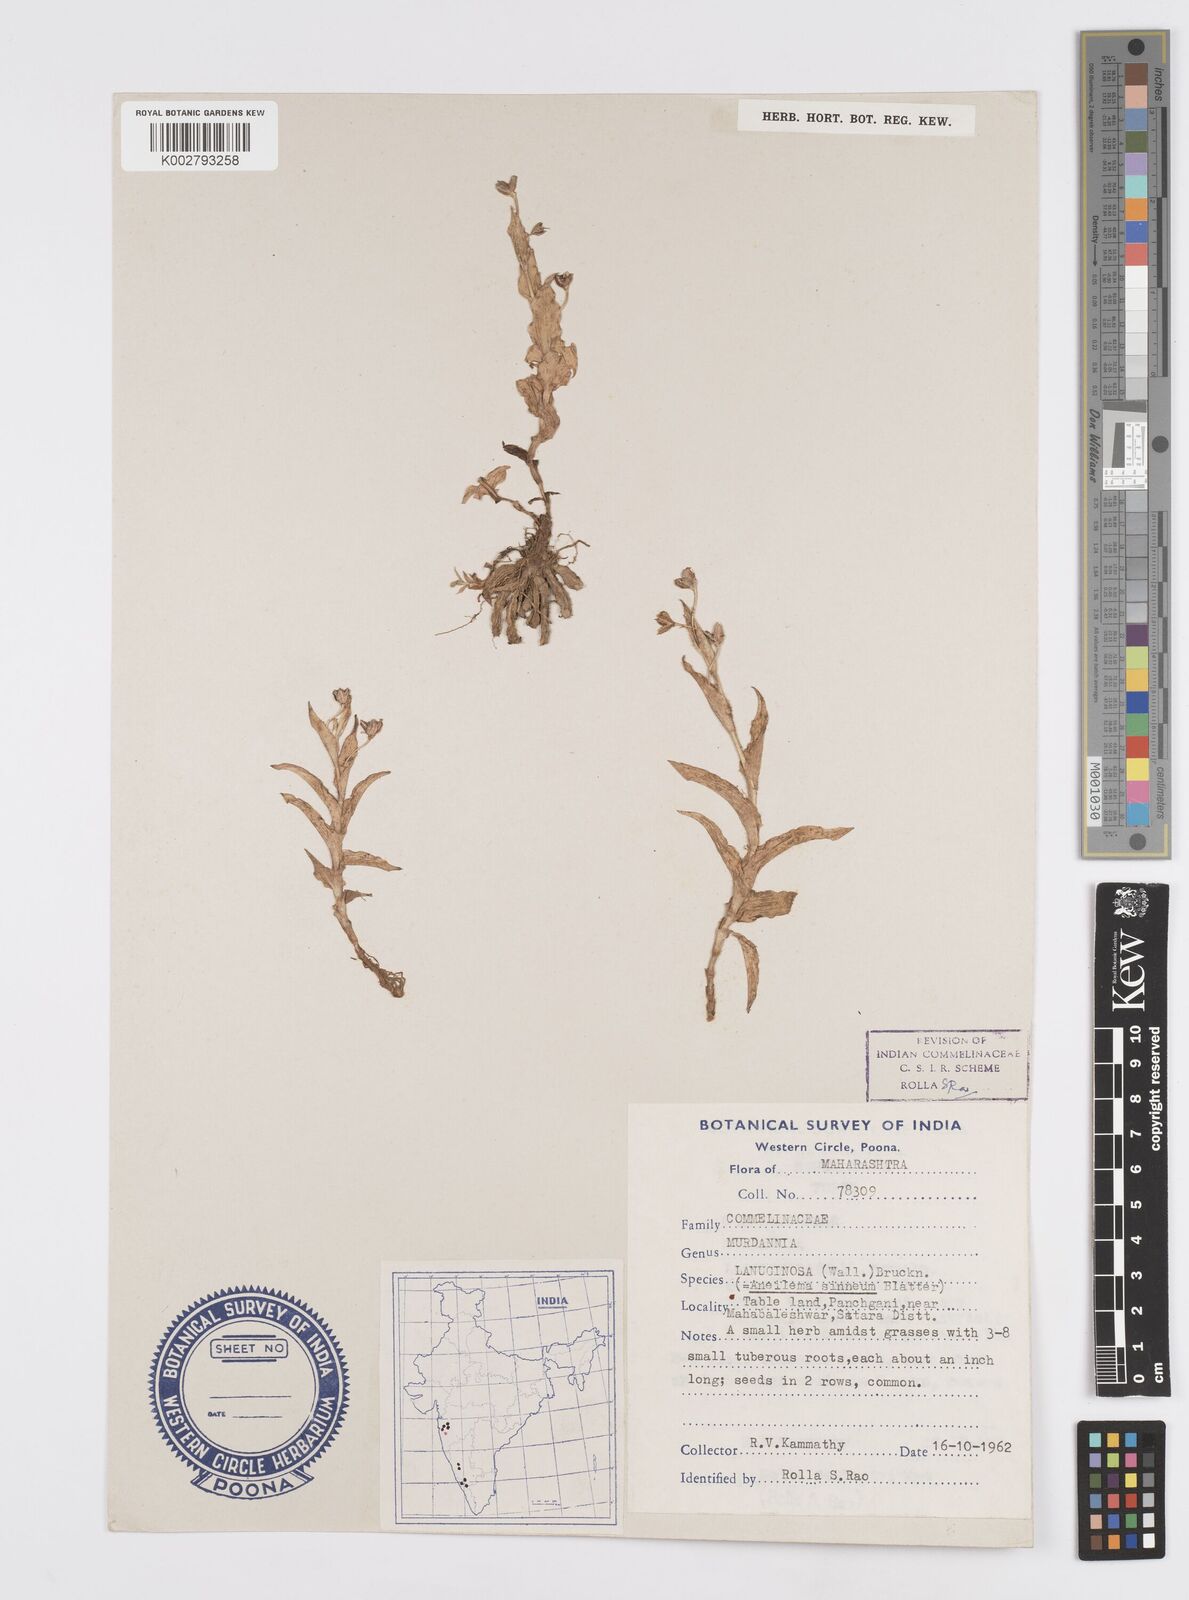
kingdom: Plantae
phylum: Tracheophyta
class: Liliopsida
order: Commelinales
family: Commelinaceae
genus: Murdannia
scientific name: Murdannia lanuginosa
